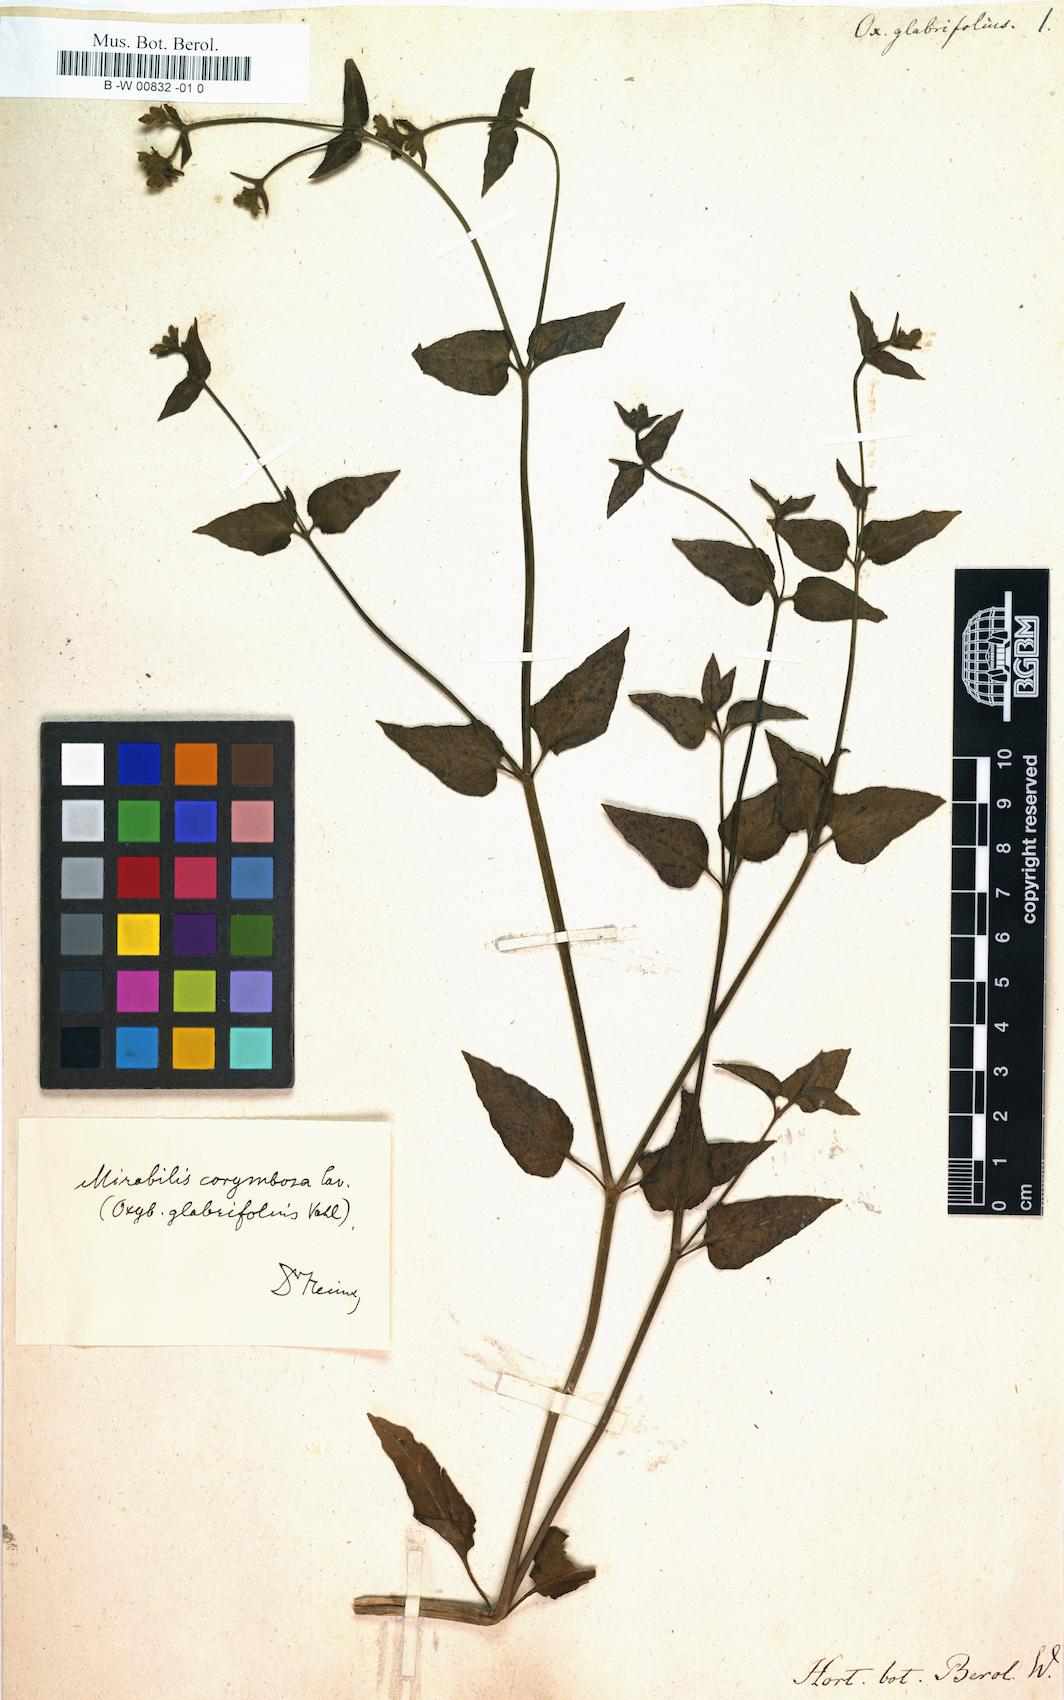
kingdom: Plantae
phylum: Tracheophyta
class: Magnoliopsida
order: Caryophyllales
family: Nyctaginaceae
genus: Mirabilis
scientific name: Mirabilis glabrifolia
